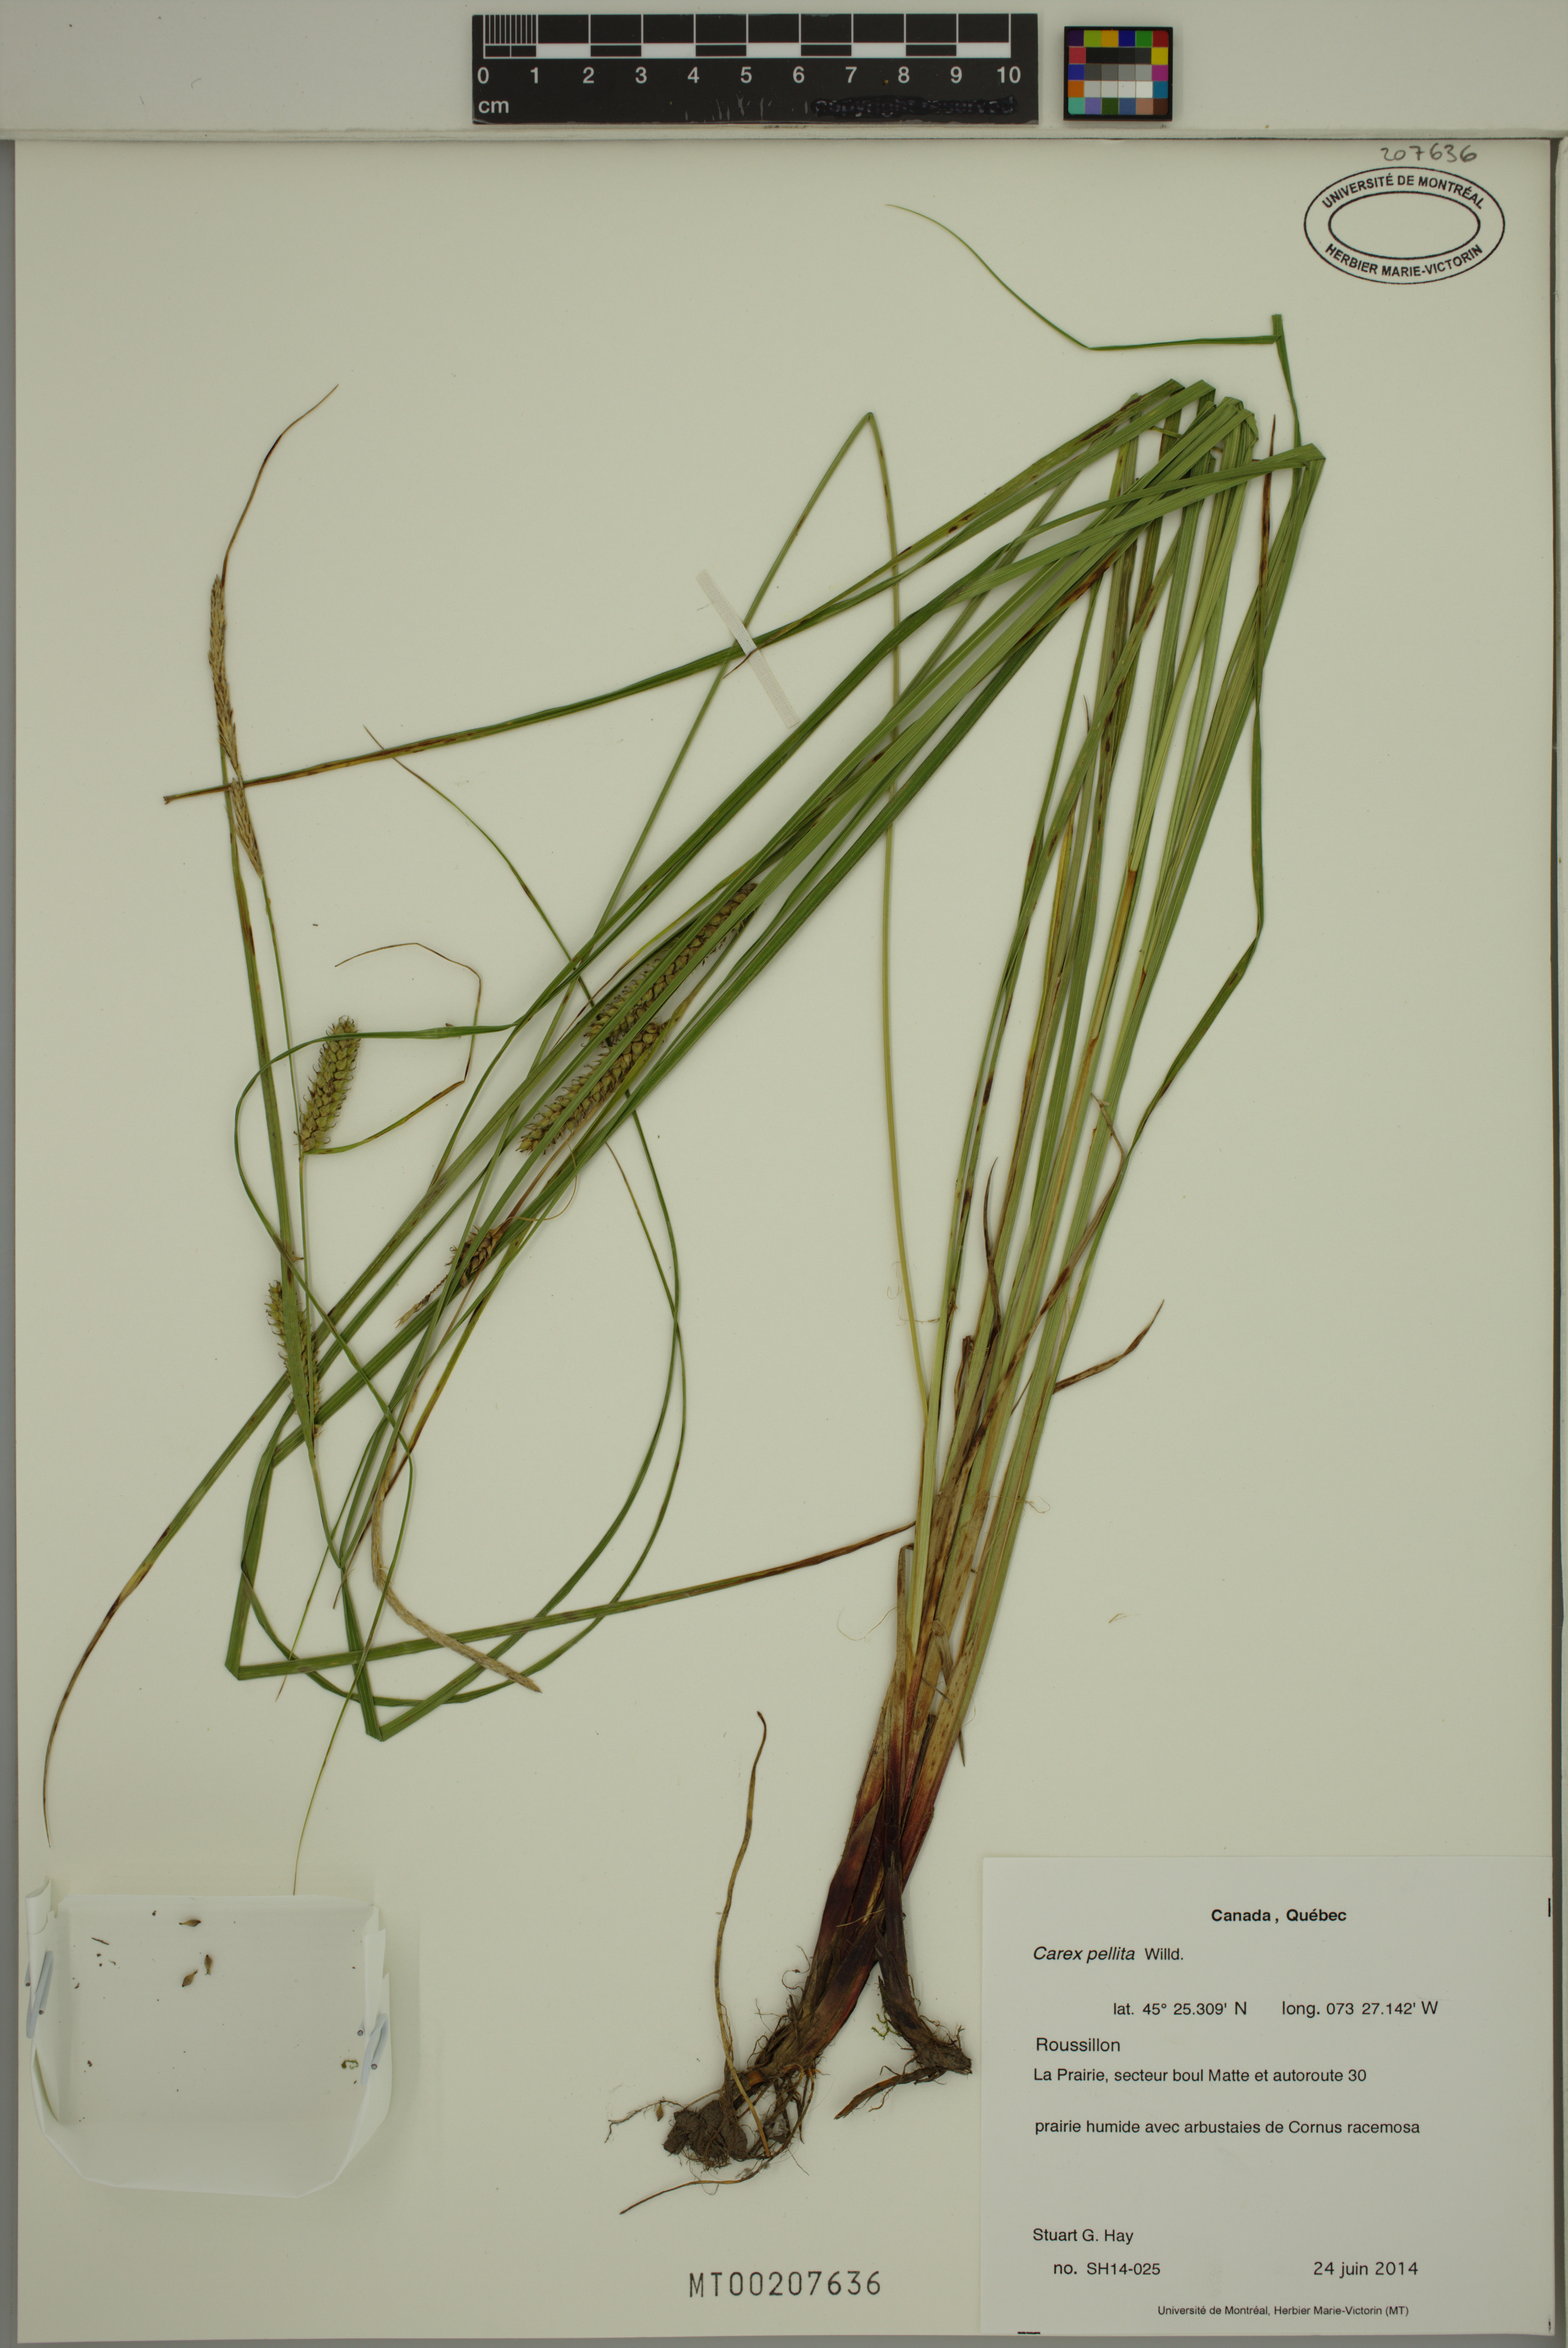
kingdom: Plantae
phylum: Tracheophyta
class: Liliopsida
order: Poales
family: Cyperaceae
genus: Carex
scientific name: Carex pellita
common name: Woolly sedge
